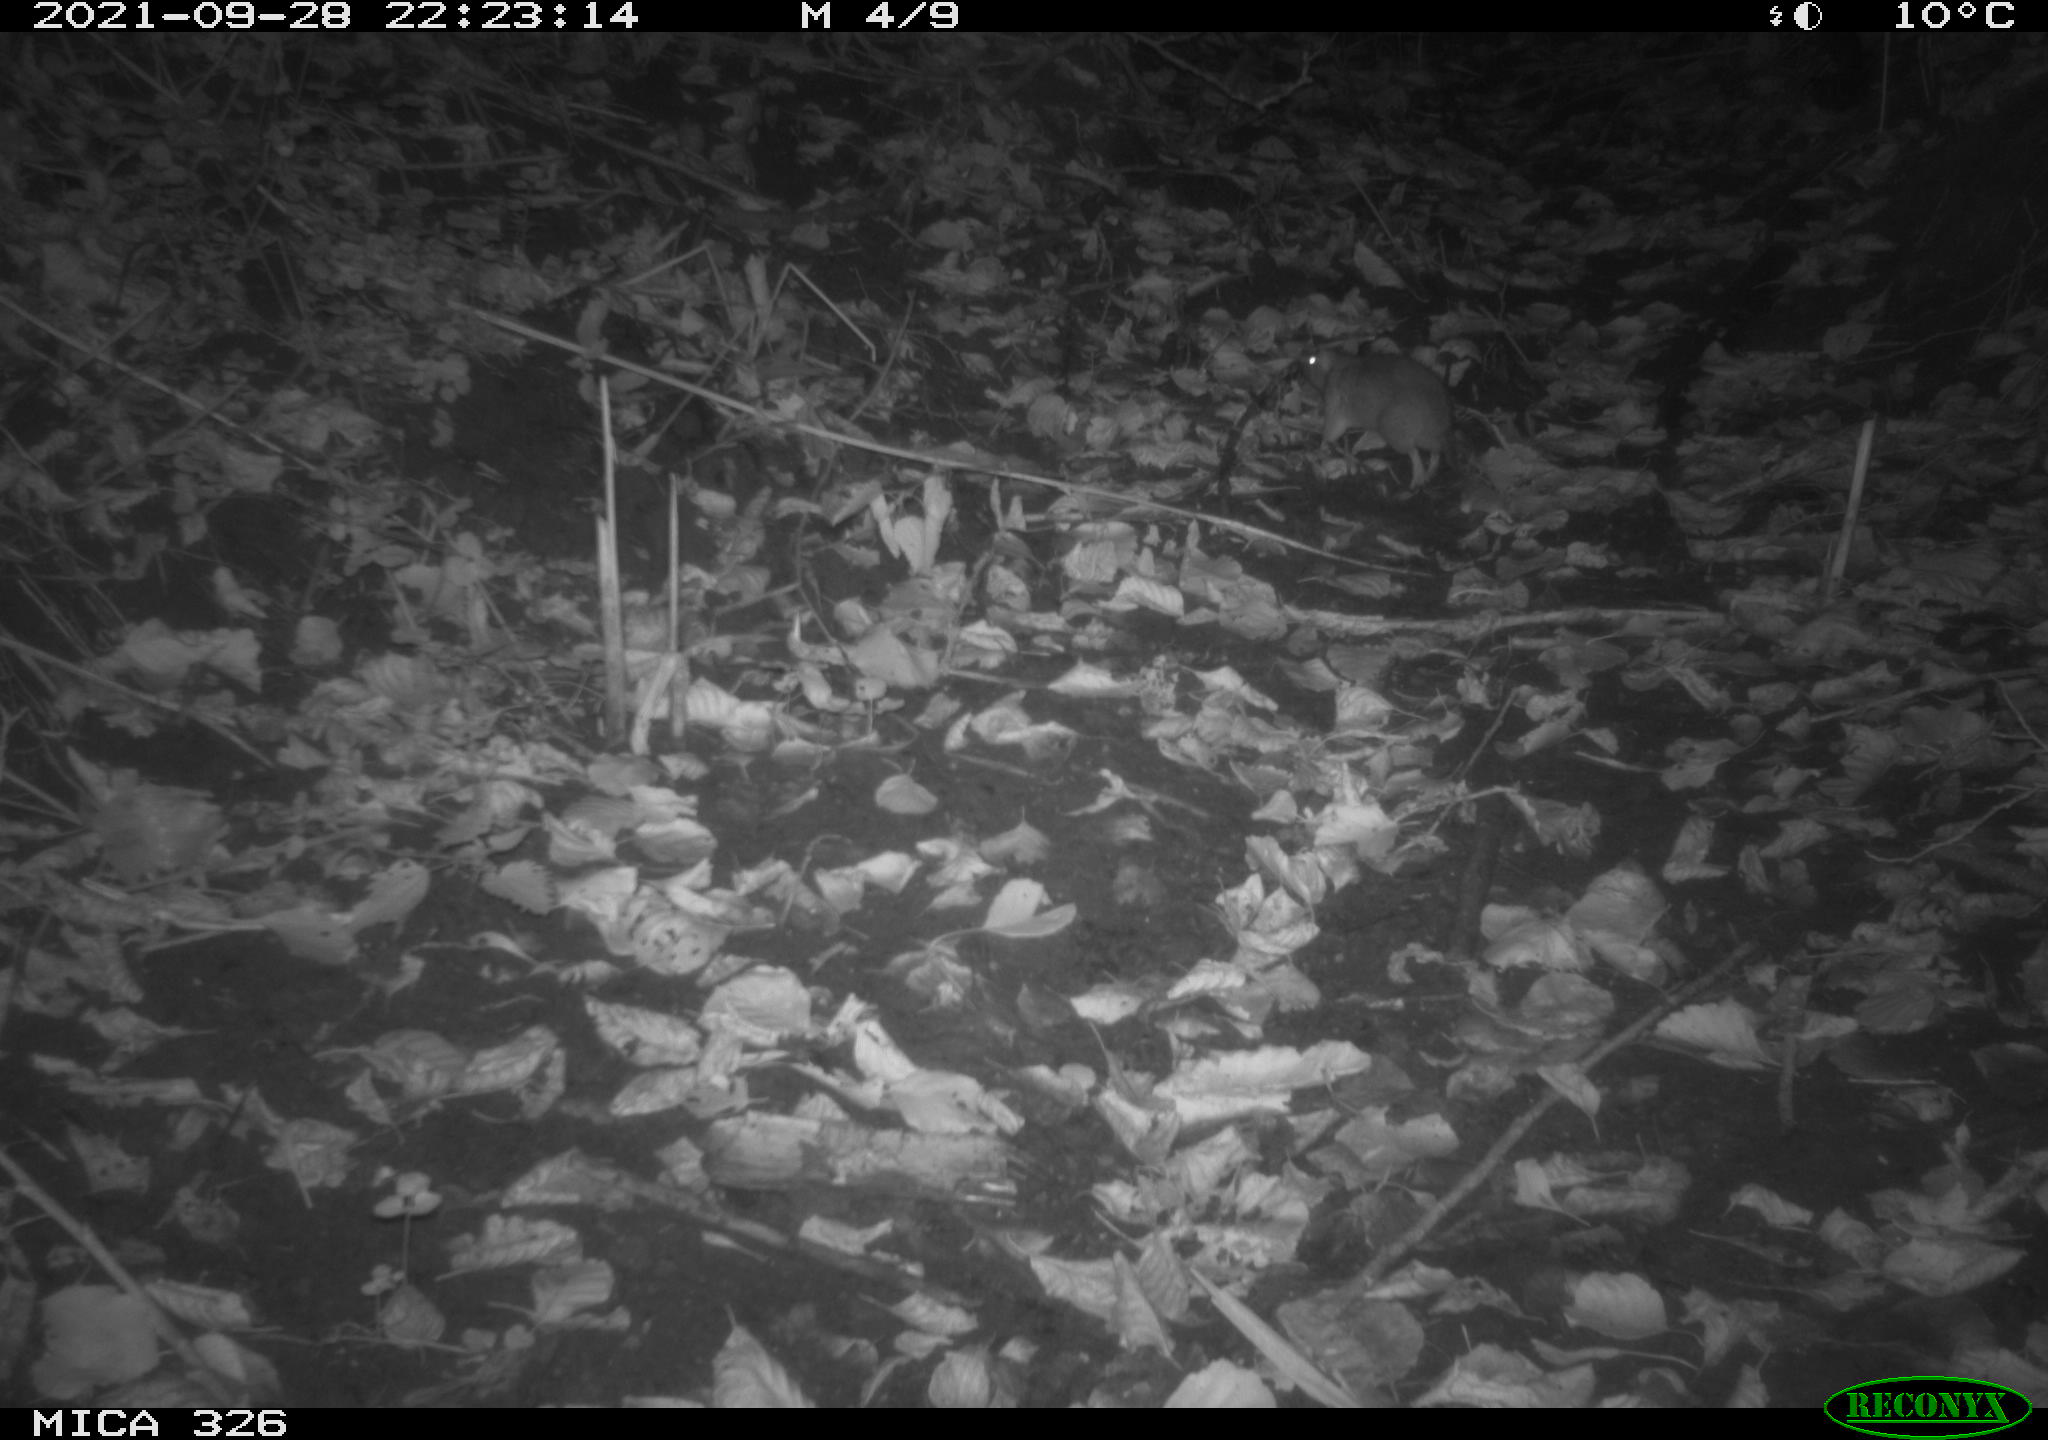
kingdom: Animalia
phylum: Chordata
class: Mammalia
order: Rodentia
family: Muridae
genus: Rattus
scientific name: Rattus norvegicus
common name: Brown rat
